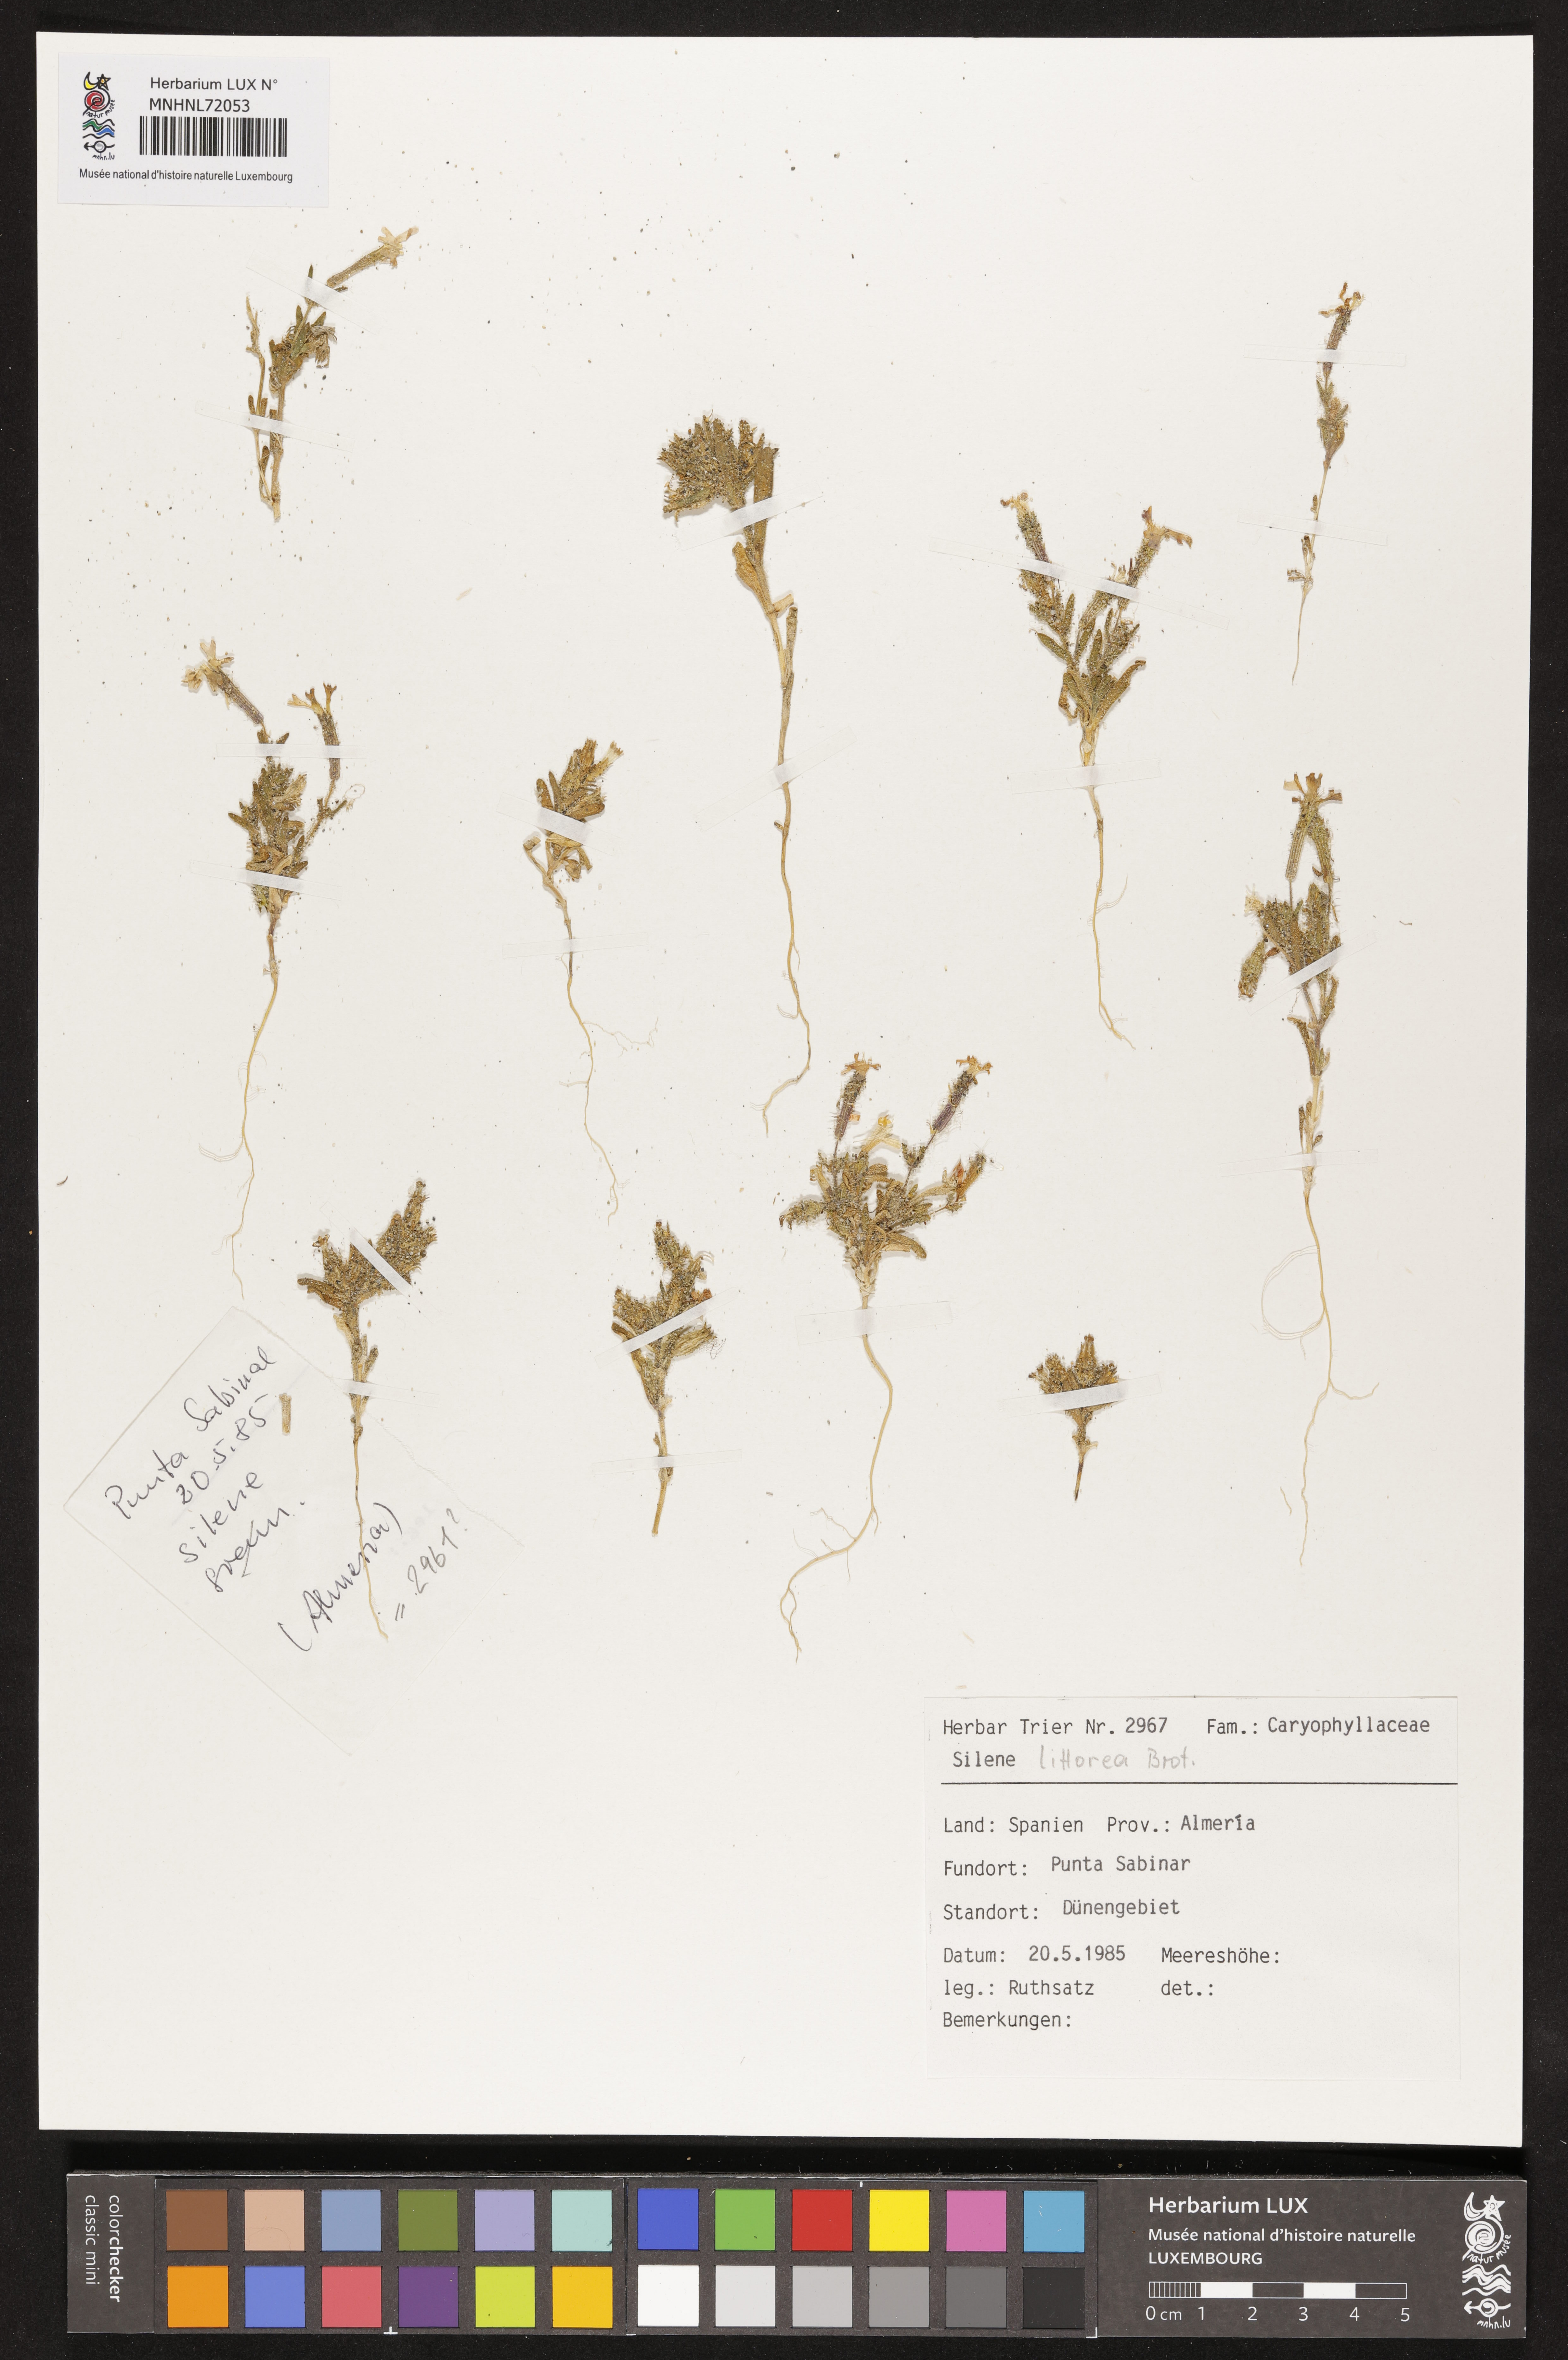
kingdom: Plantae
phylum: Tracheophyta
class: Magnoliopsida
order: Caryophyllales
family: Caryophyllaceae
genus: Silene
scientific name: Silene littorea
